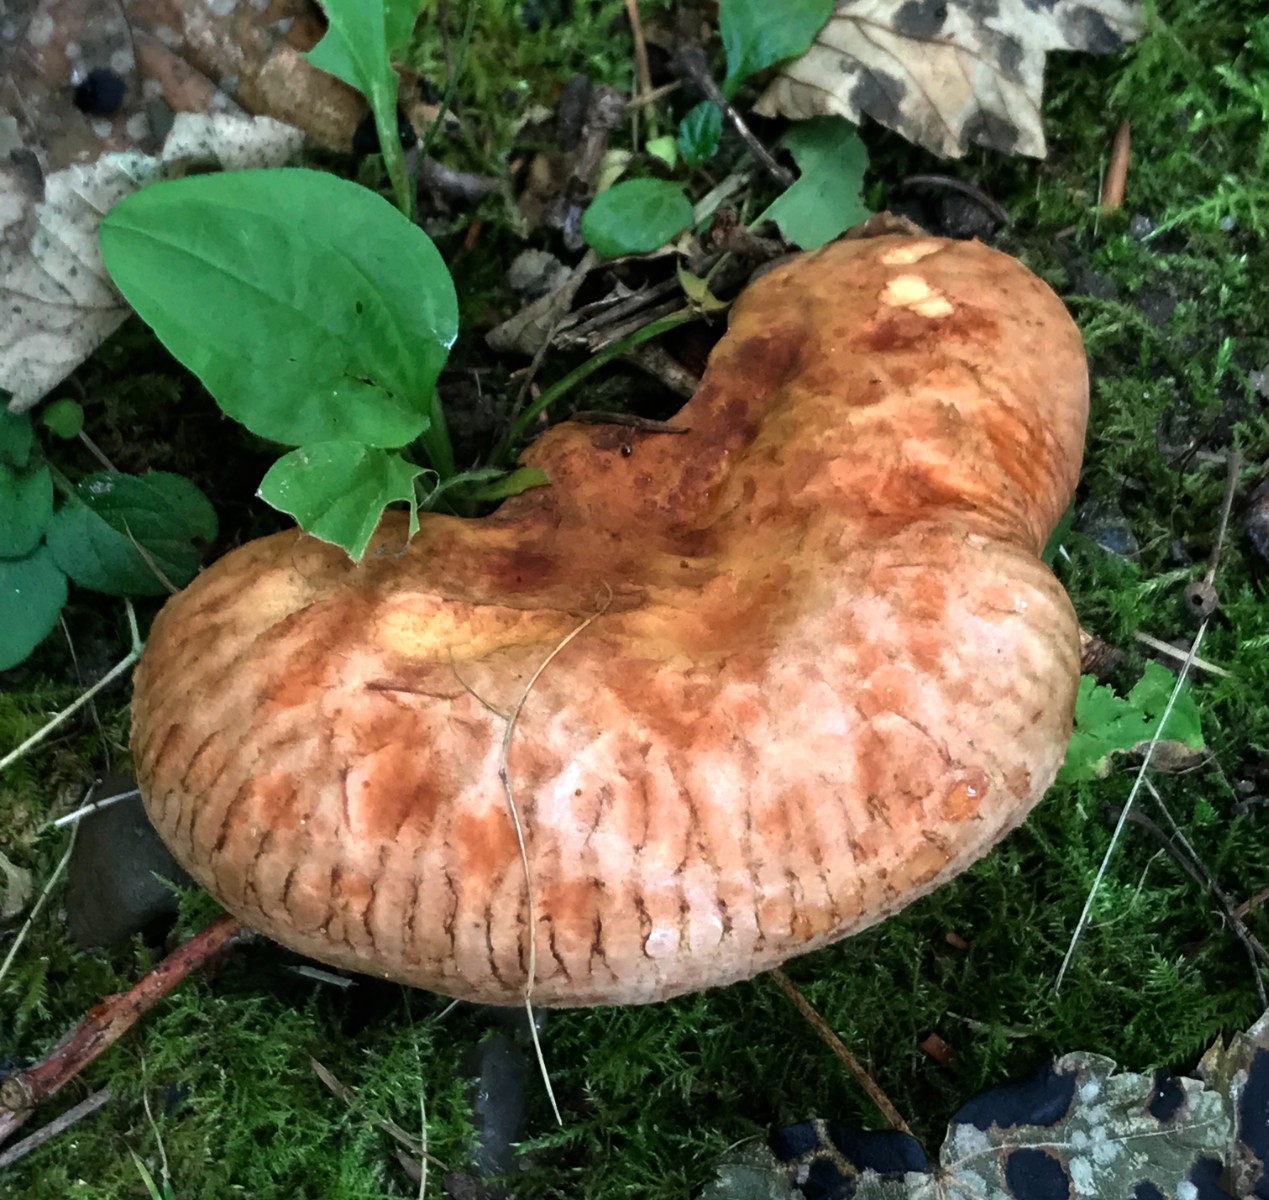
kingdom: Fungi
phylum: Basidiomycota
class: Agaricomycetes
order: Boletales
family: Paxillaceae
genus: Paxillus
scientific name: Paxillus involutus
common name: almindelig netbladhat
